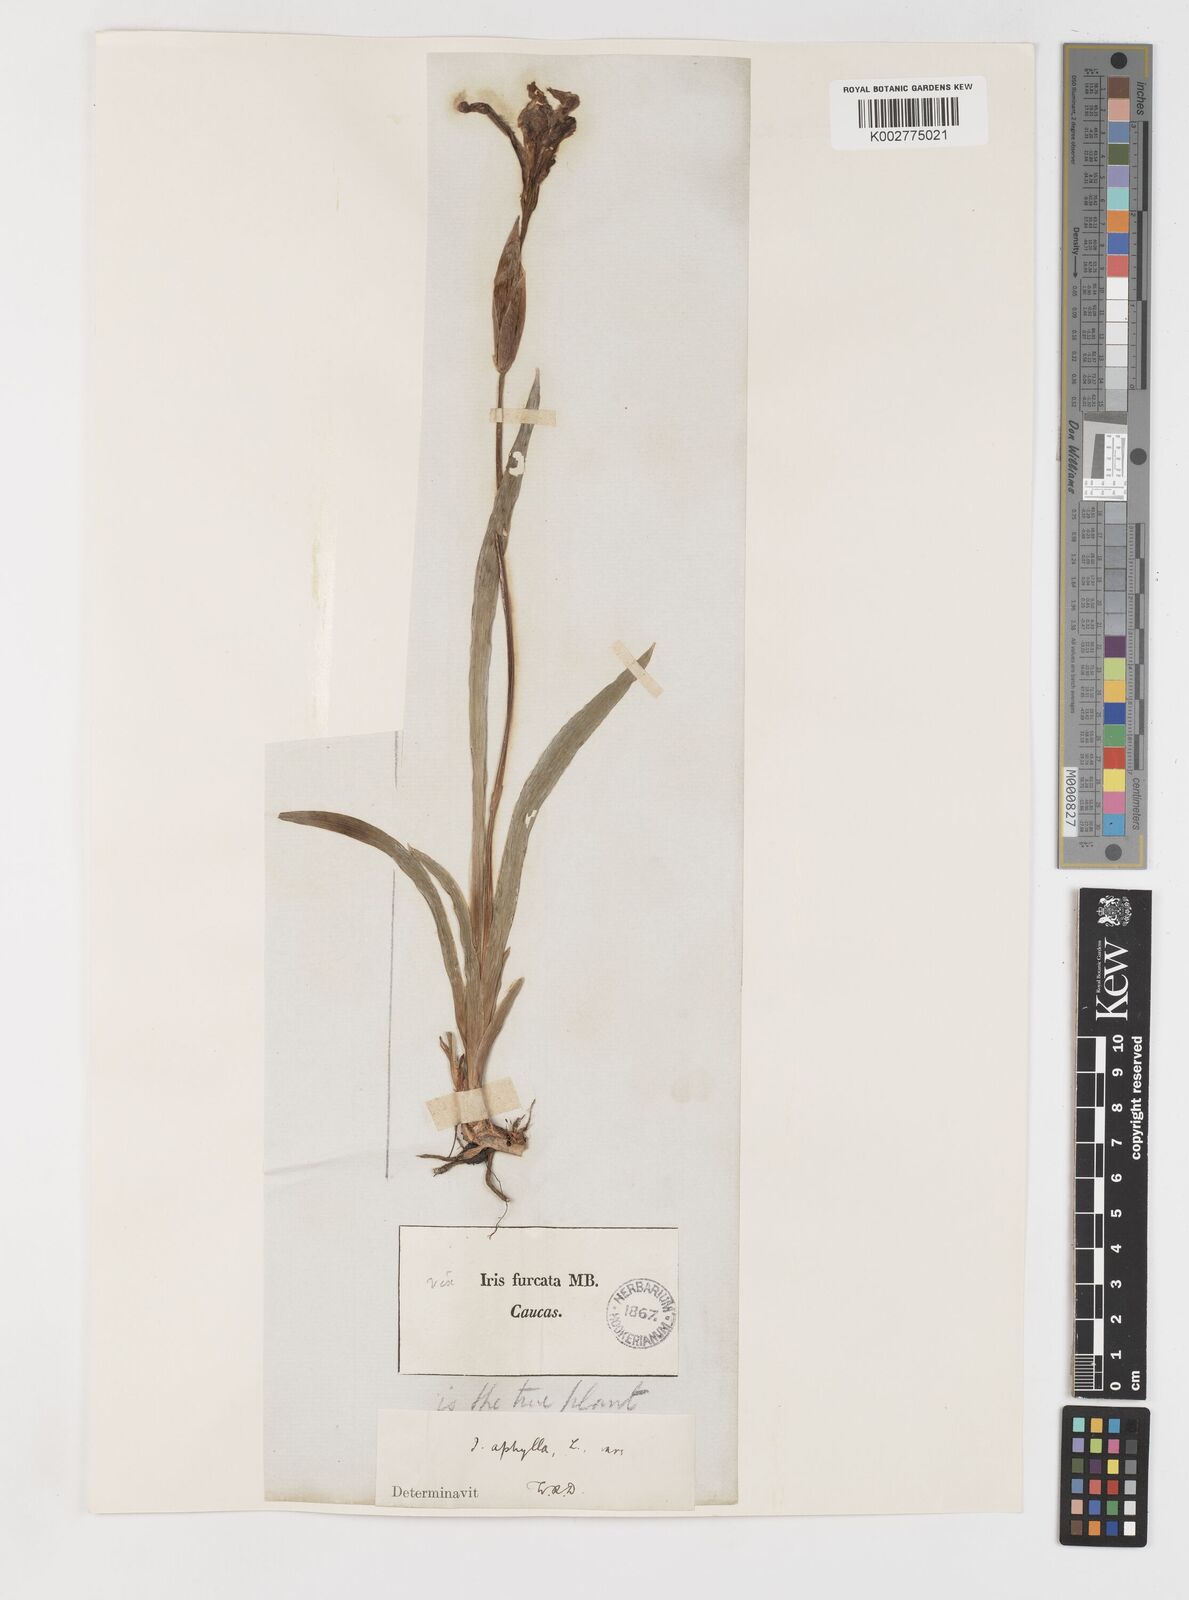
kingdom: Plantae
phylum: Tracheophyta
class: Liliopsida
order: Asparagales
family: Iridaceae
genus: Iris
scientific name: Iris aphylla
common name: Stool iris
